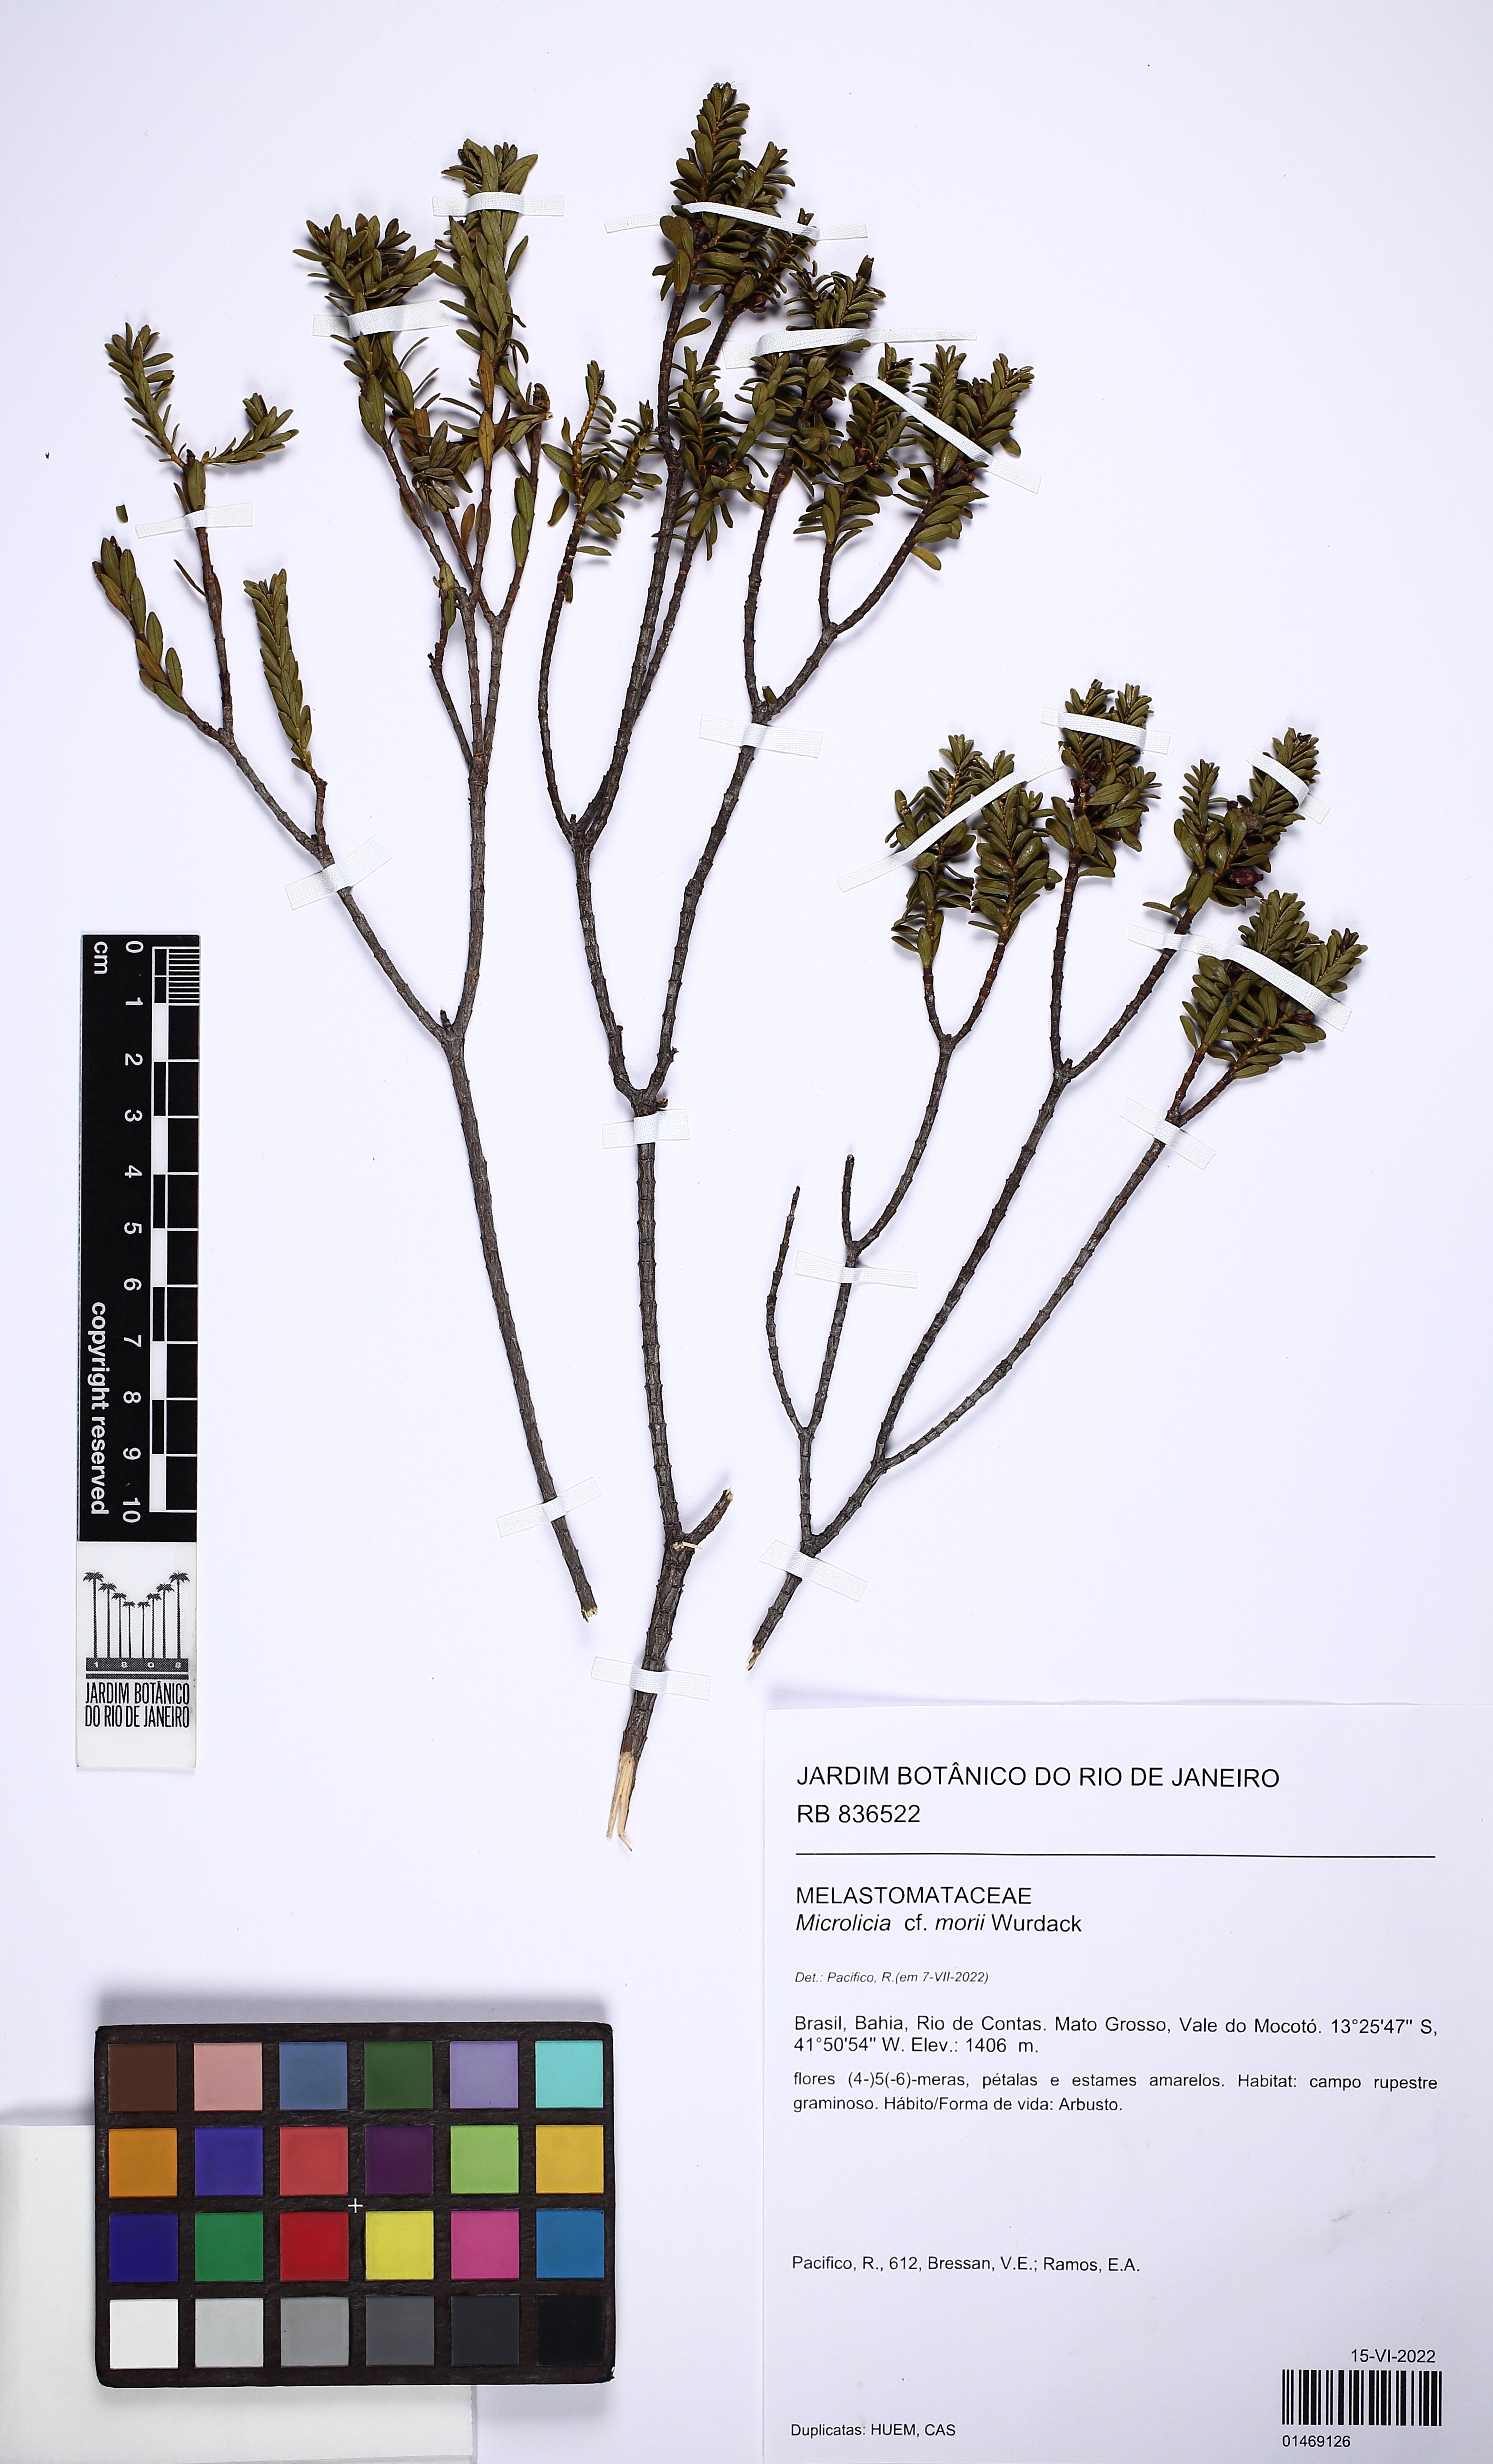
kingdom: Plantae
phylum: Tracheophyta
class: Magnoliopsida
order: Myrtales
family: Melastomataceae
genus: Microlicia
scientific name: Microlicia morii
